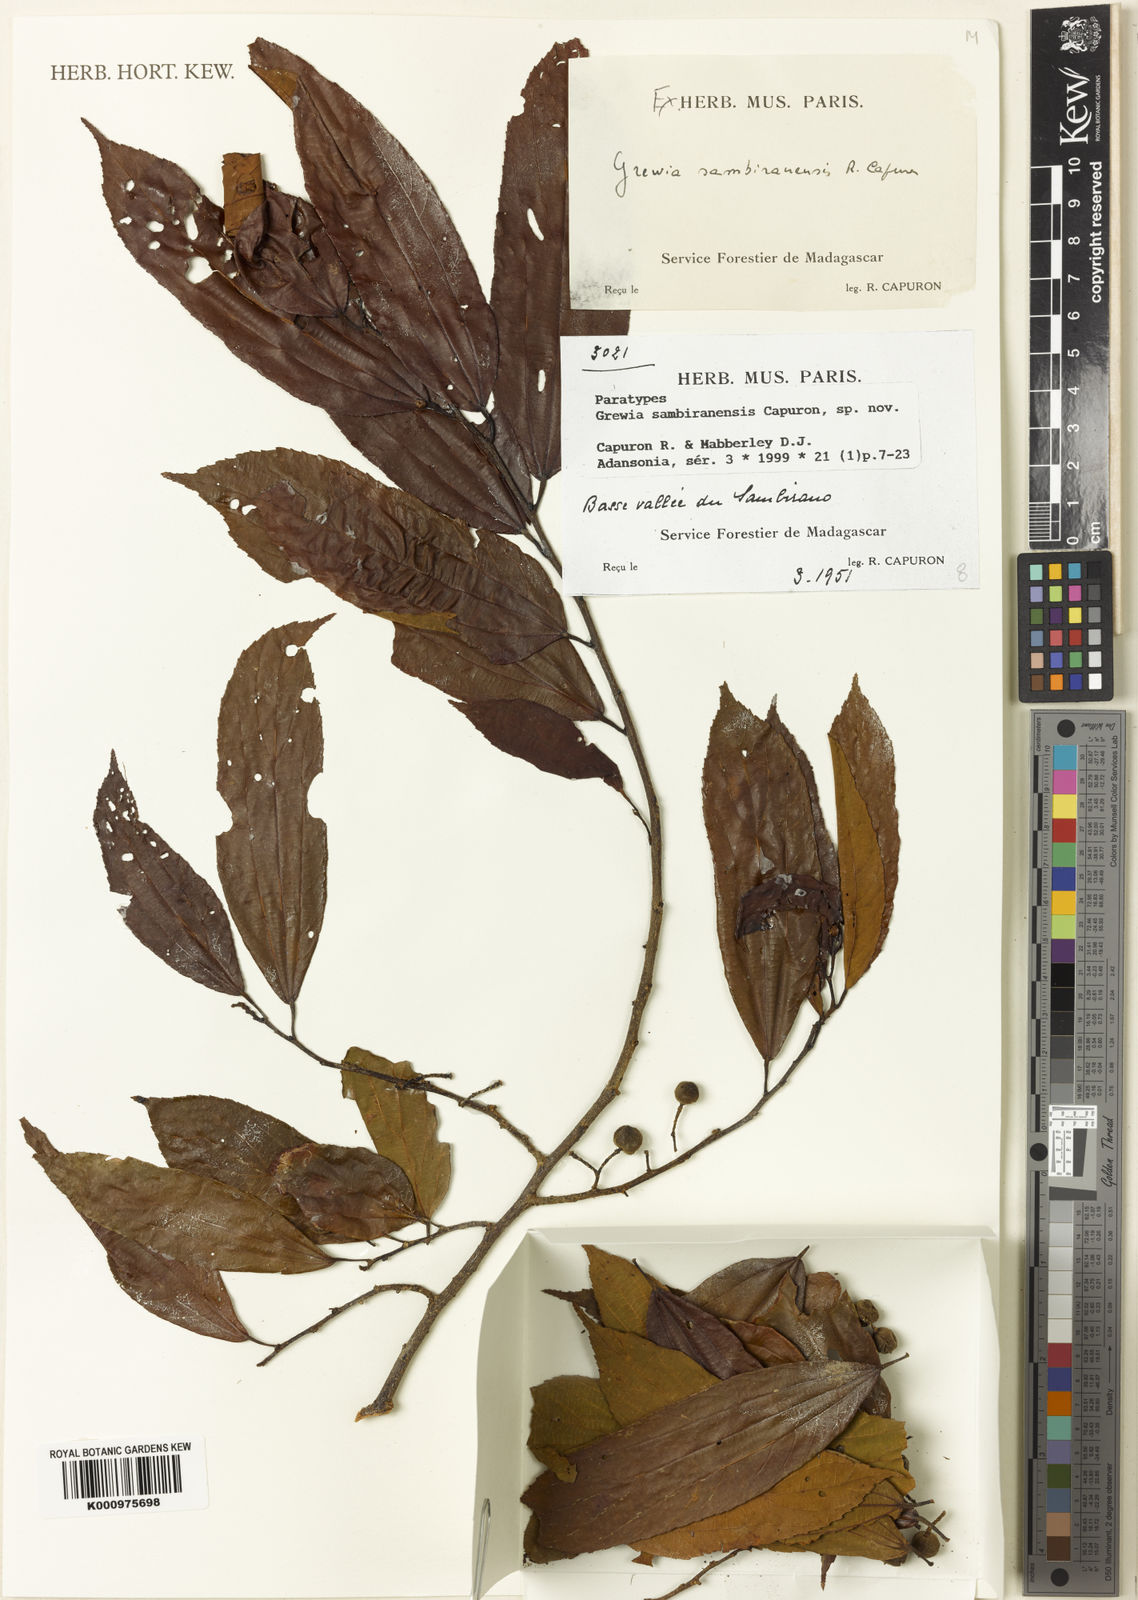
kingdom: Plantae
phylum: Tracheophyta
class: Magnoliopsida
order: Malvales
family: Malvaceae
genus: Grewia
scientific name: Grewia sambiranensis
